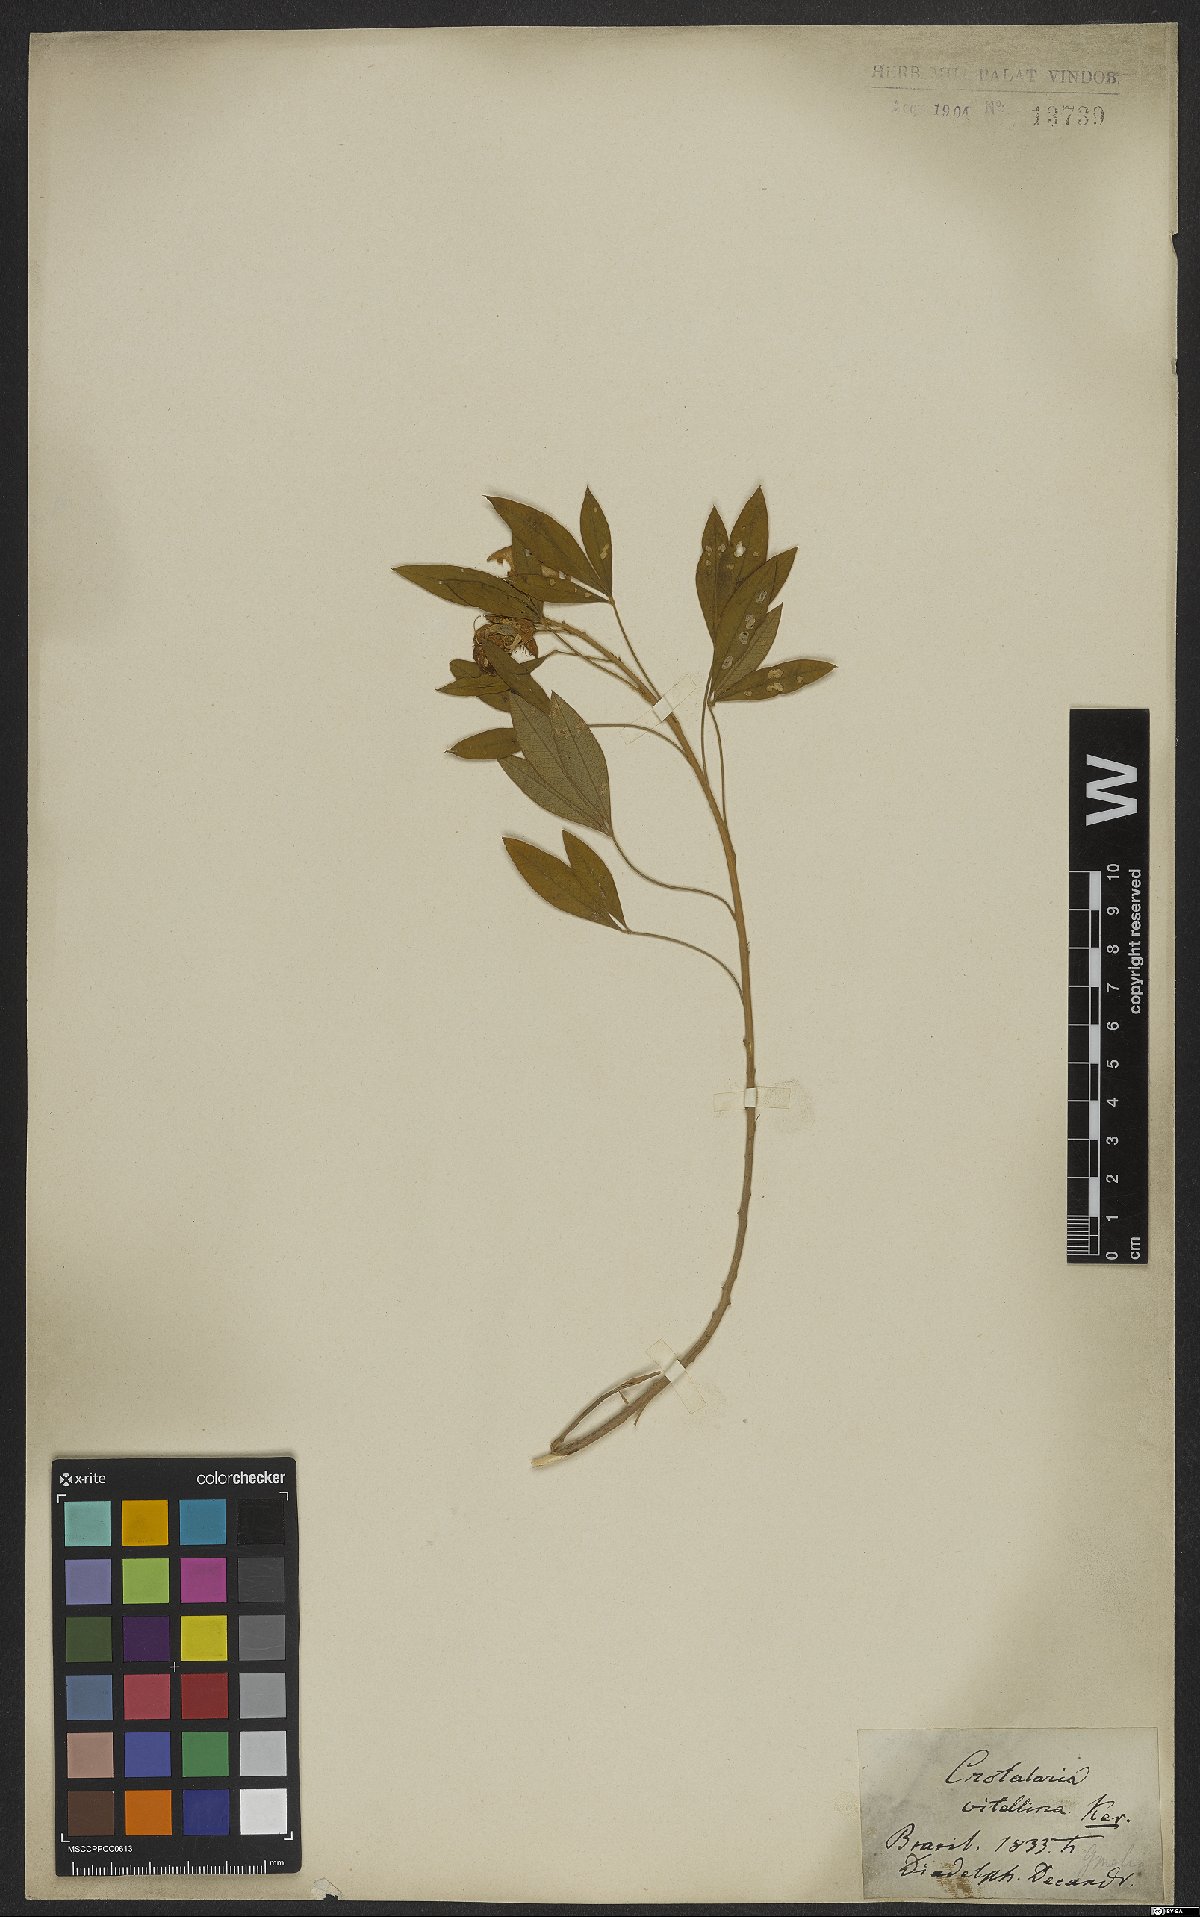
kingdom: Plantae
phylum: Tracheophyta
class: Magnoliopsida
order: Fabales
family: Fabaceae
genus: Crotalaria
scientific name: Crotalaria vitellina
